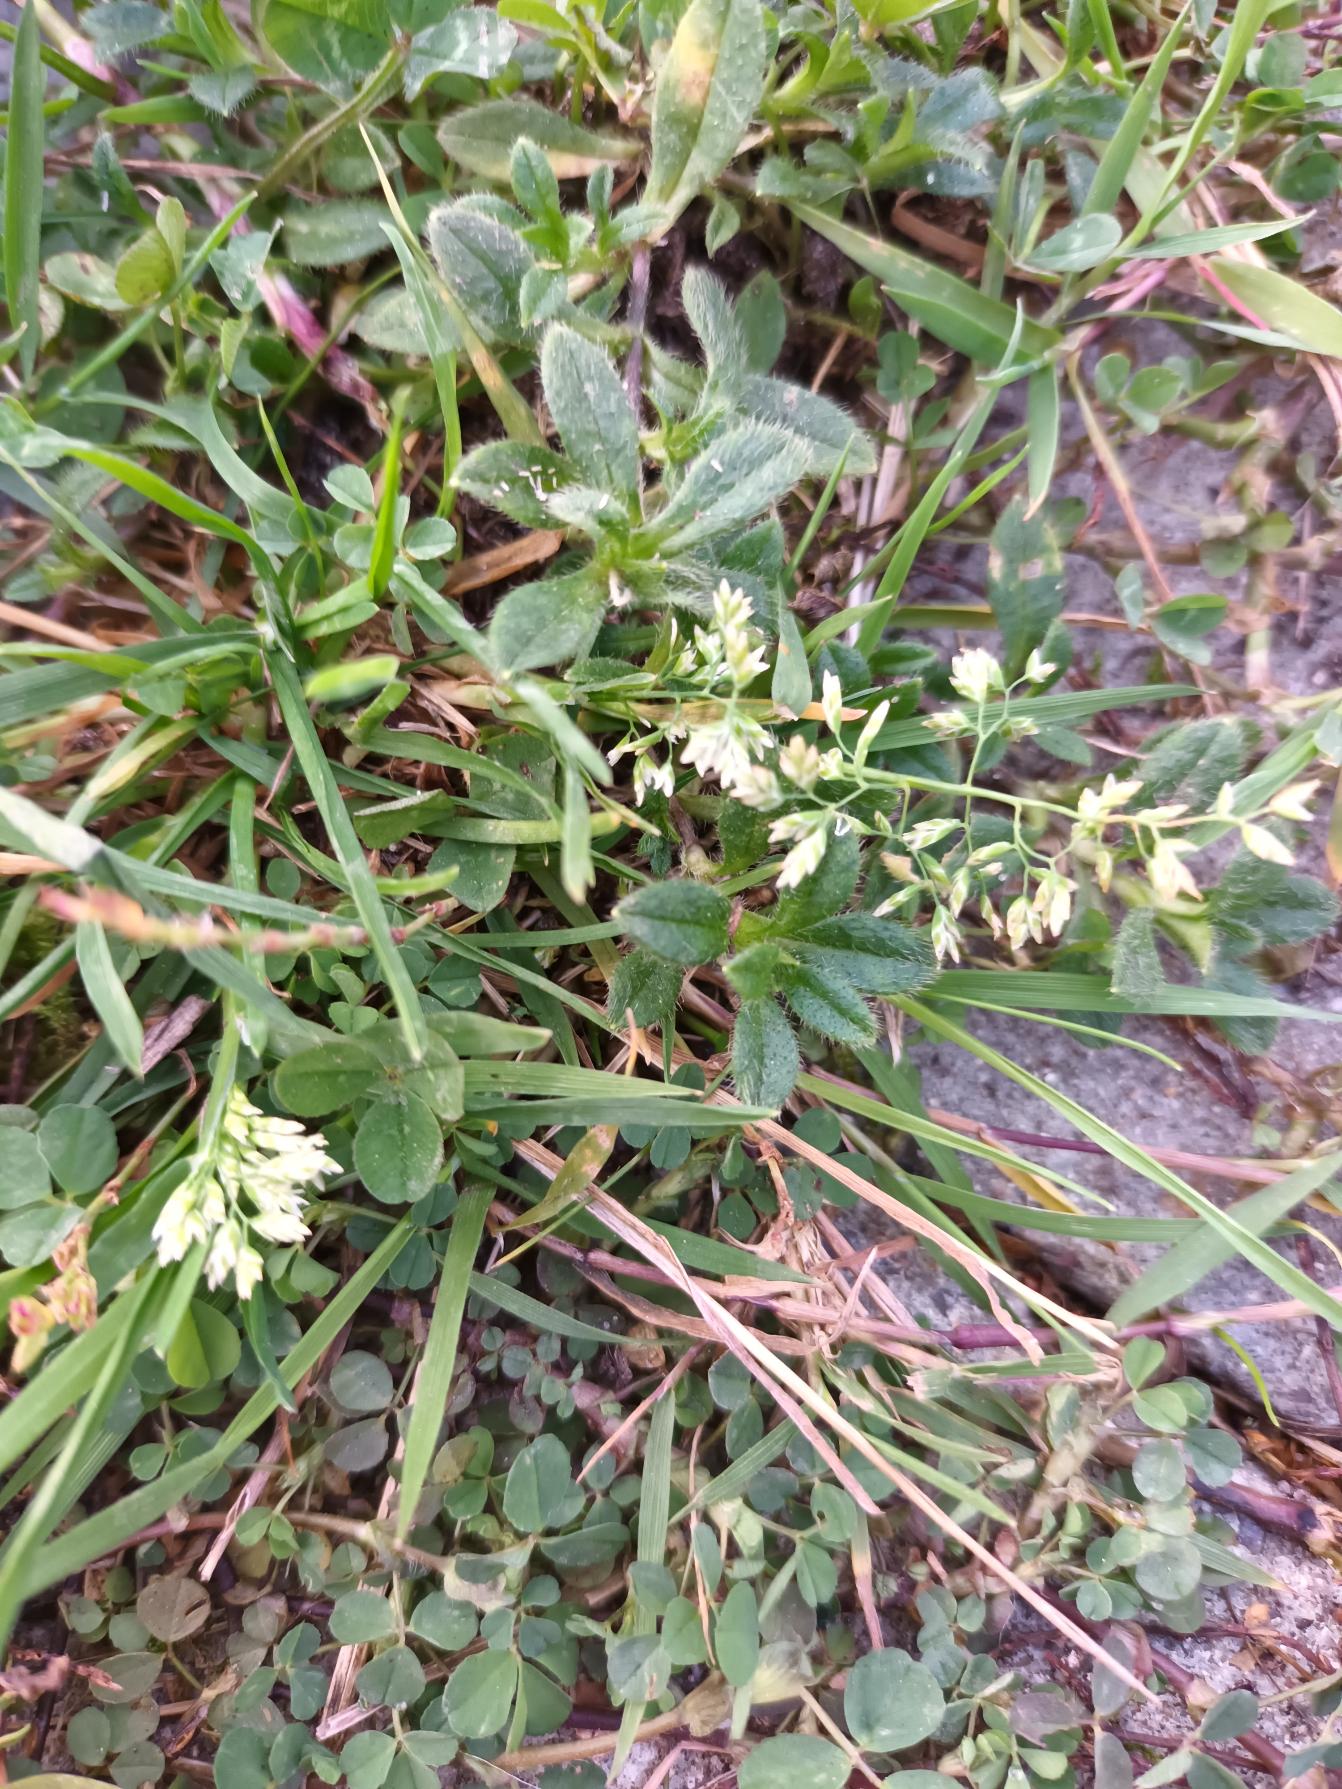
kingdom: Plantae
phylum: Tracheophyta
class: Liliopsida
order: Poales
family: Poaceae
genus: Poa
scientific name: Poa annua
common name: Enårig rapgræs
